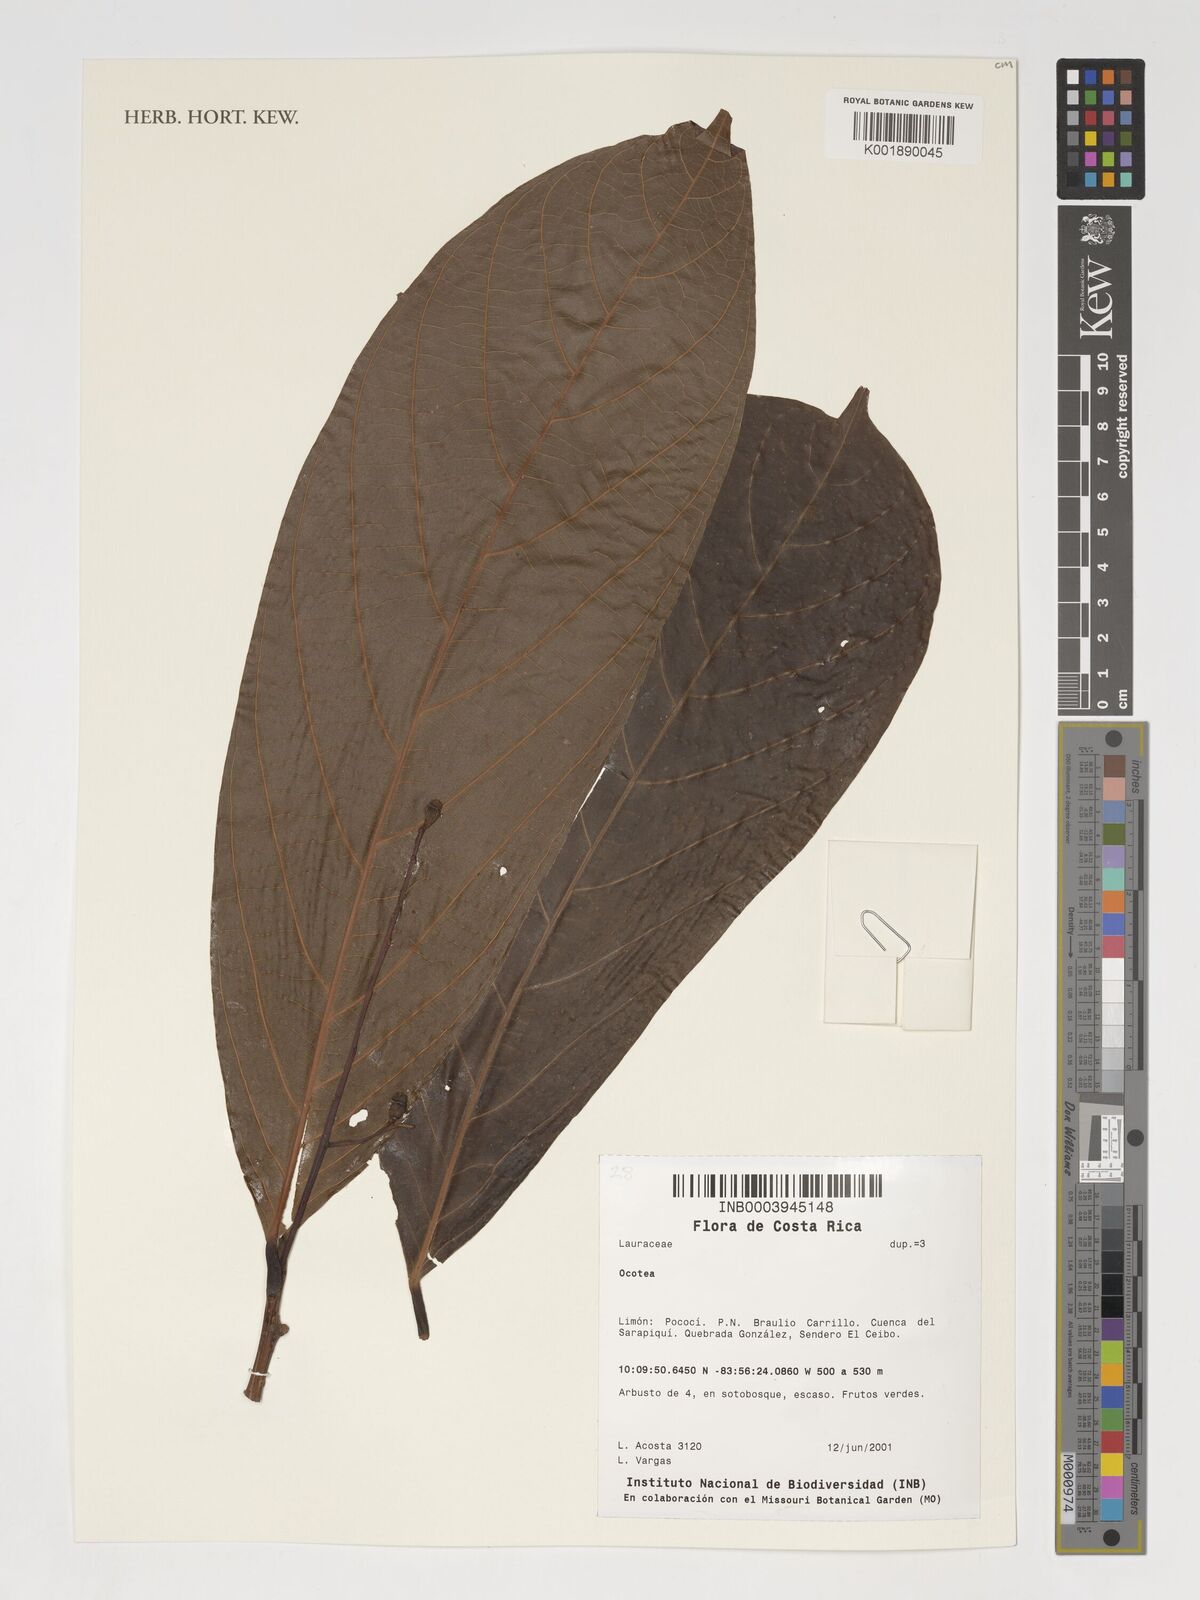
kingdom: Plantae
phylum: Tracheophyta
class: Magnoliopsida
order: Laurales
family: Lauraceae
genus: Ocotea
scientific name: Ocotea
